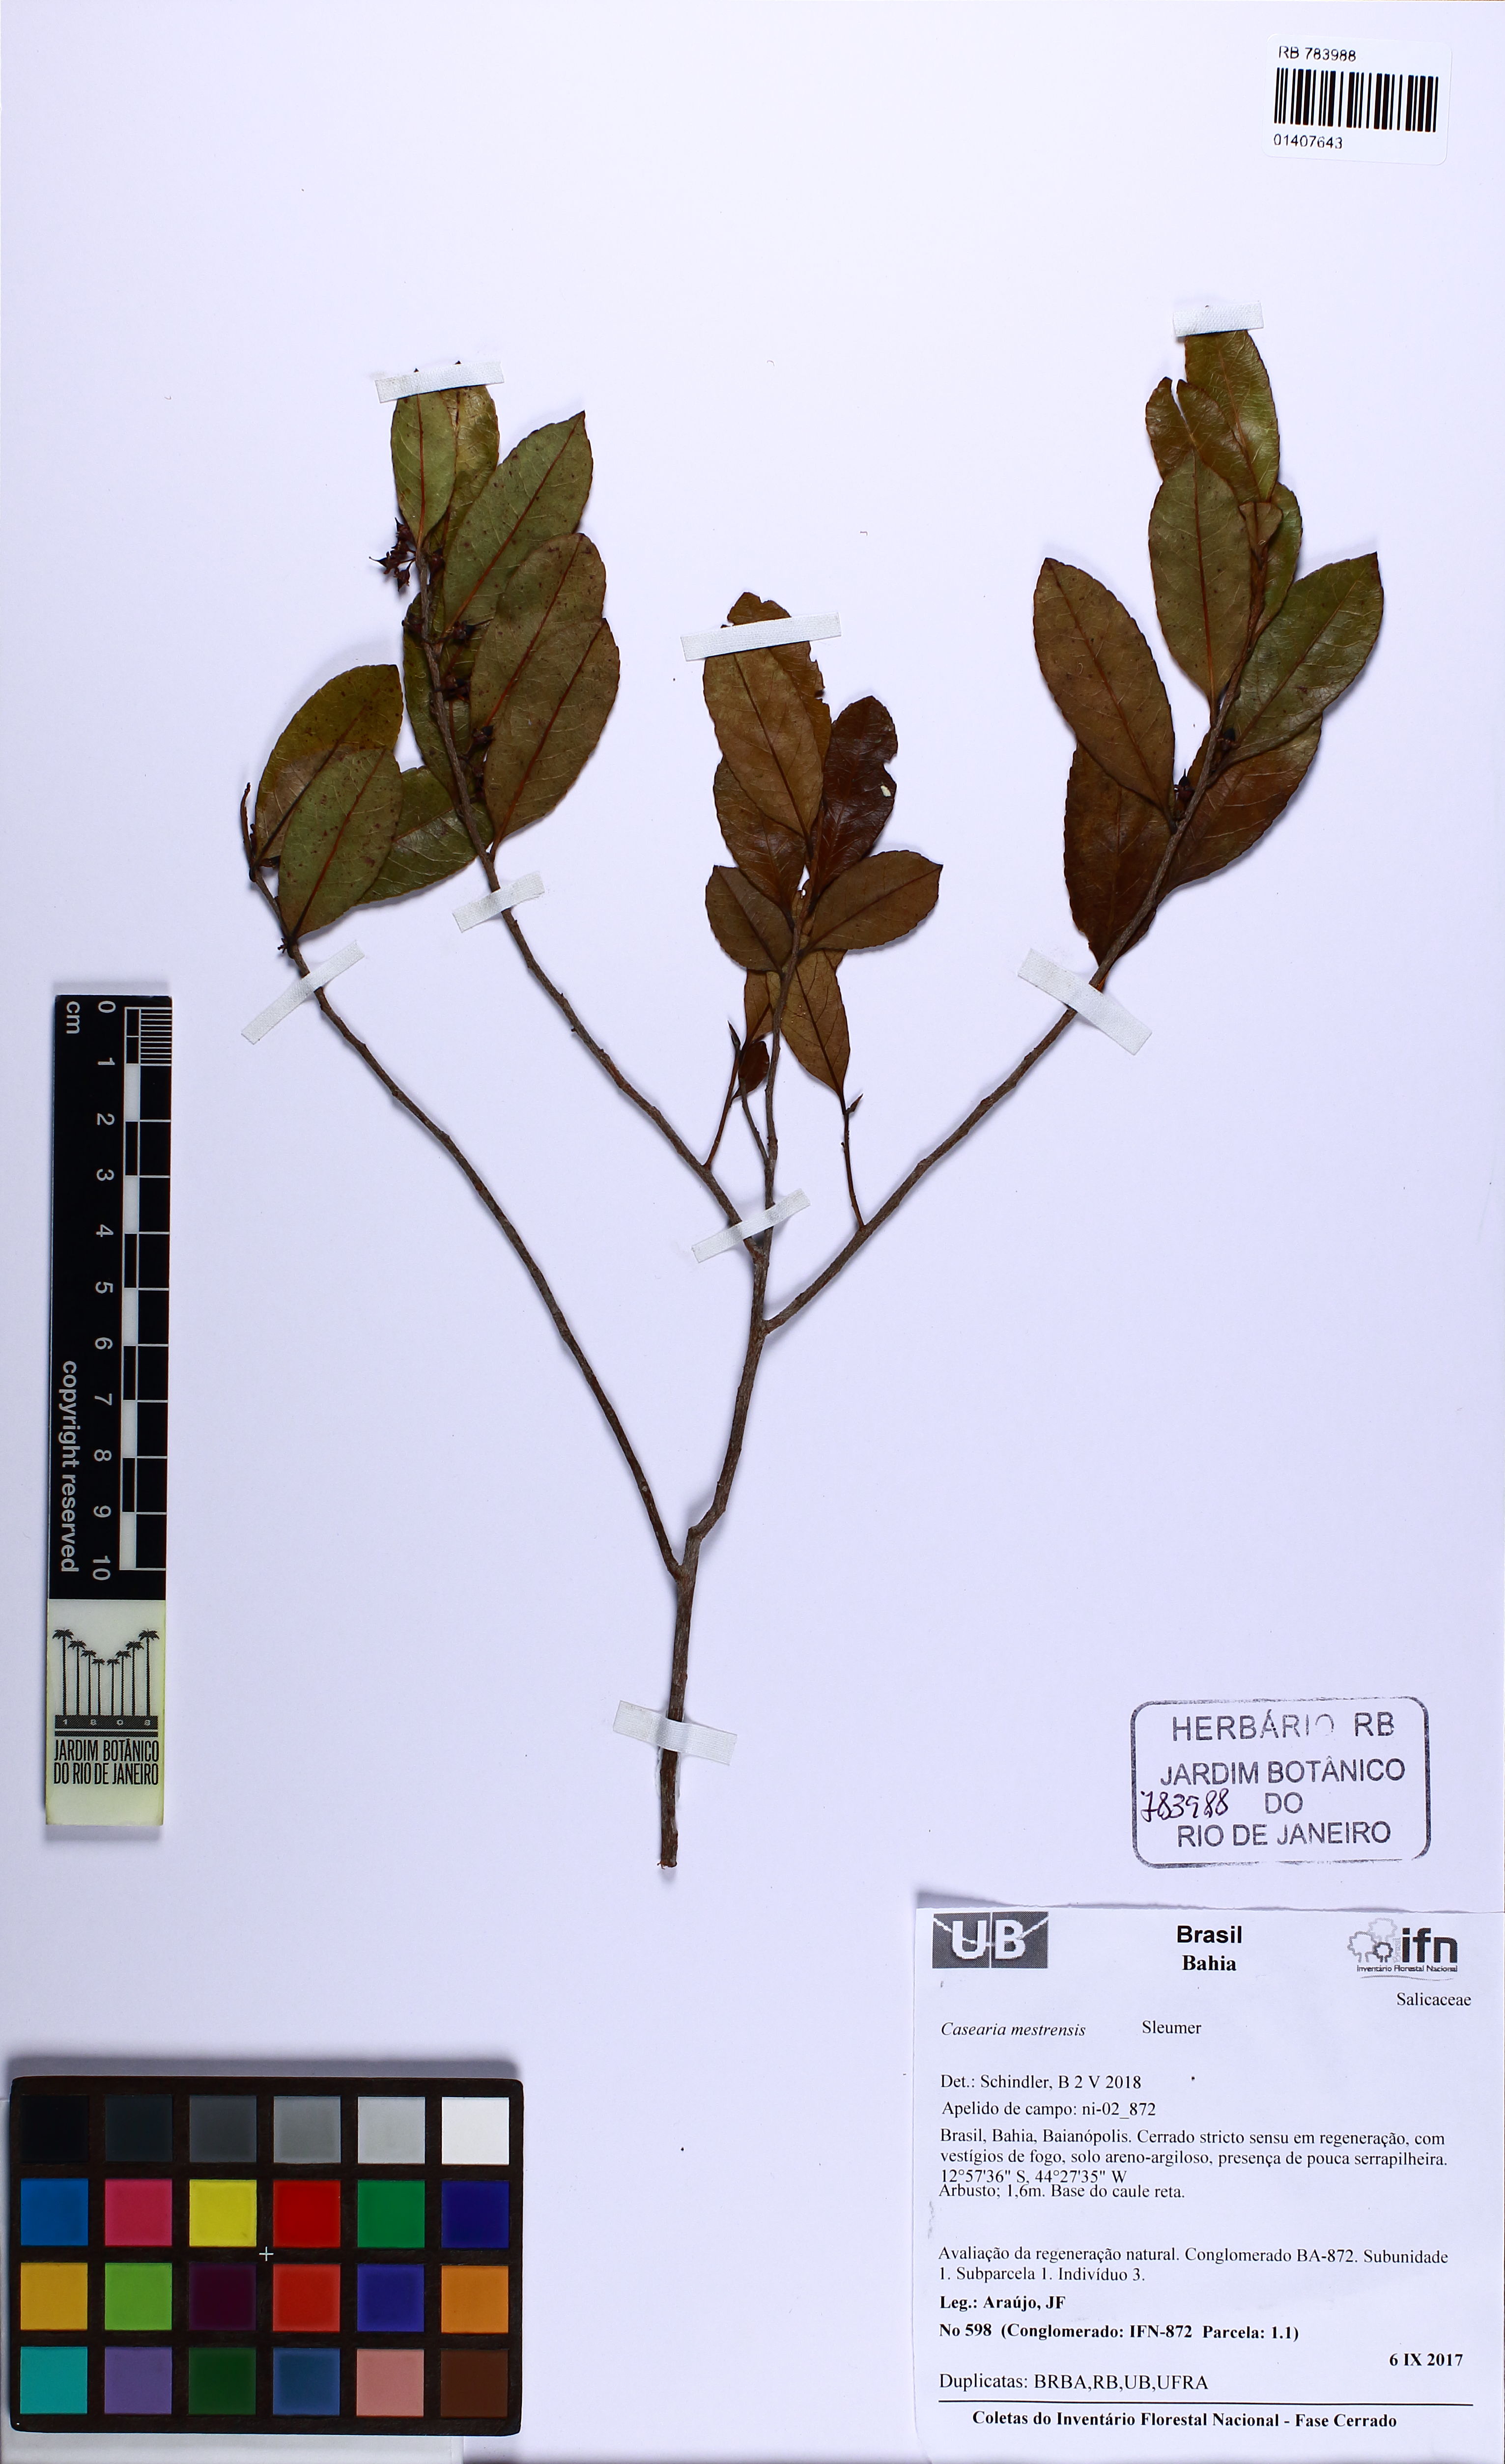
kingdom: Plantae
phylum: Tracheophyta
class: Magnoliopsida
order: Malpighiales
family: Salicaceae
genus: Casearia
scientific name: Casearia mestrensis
